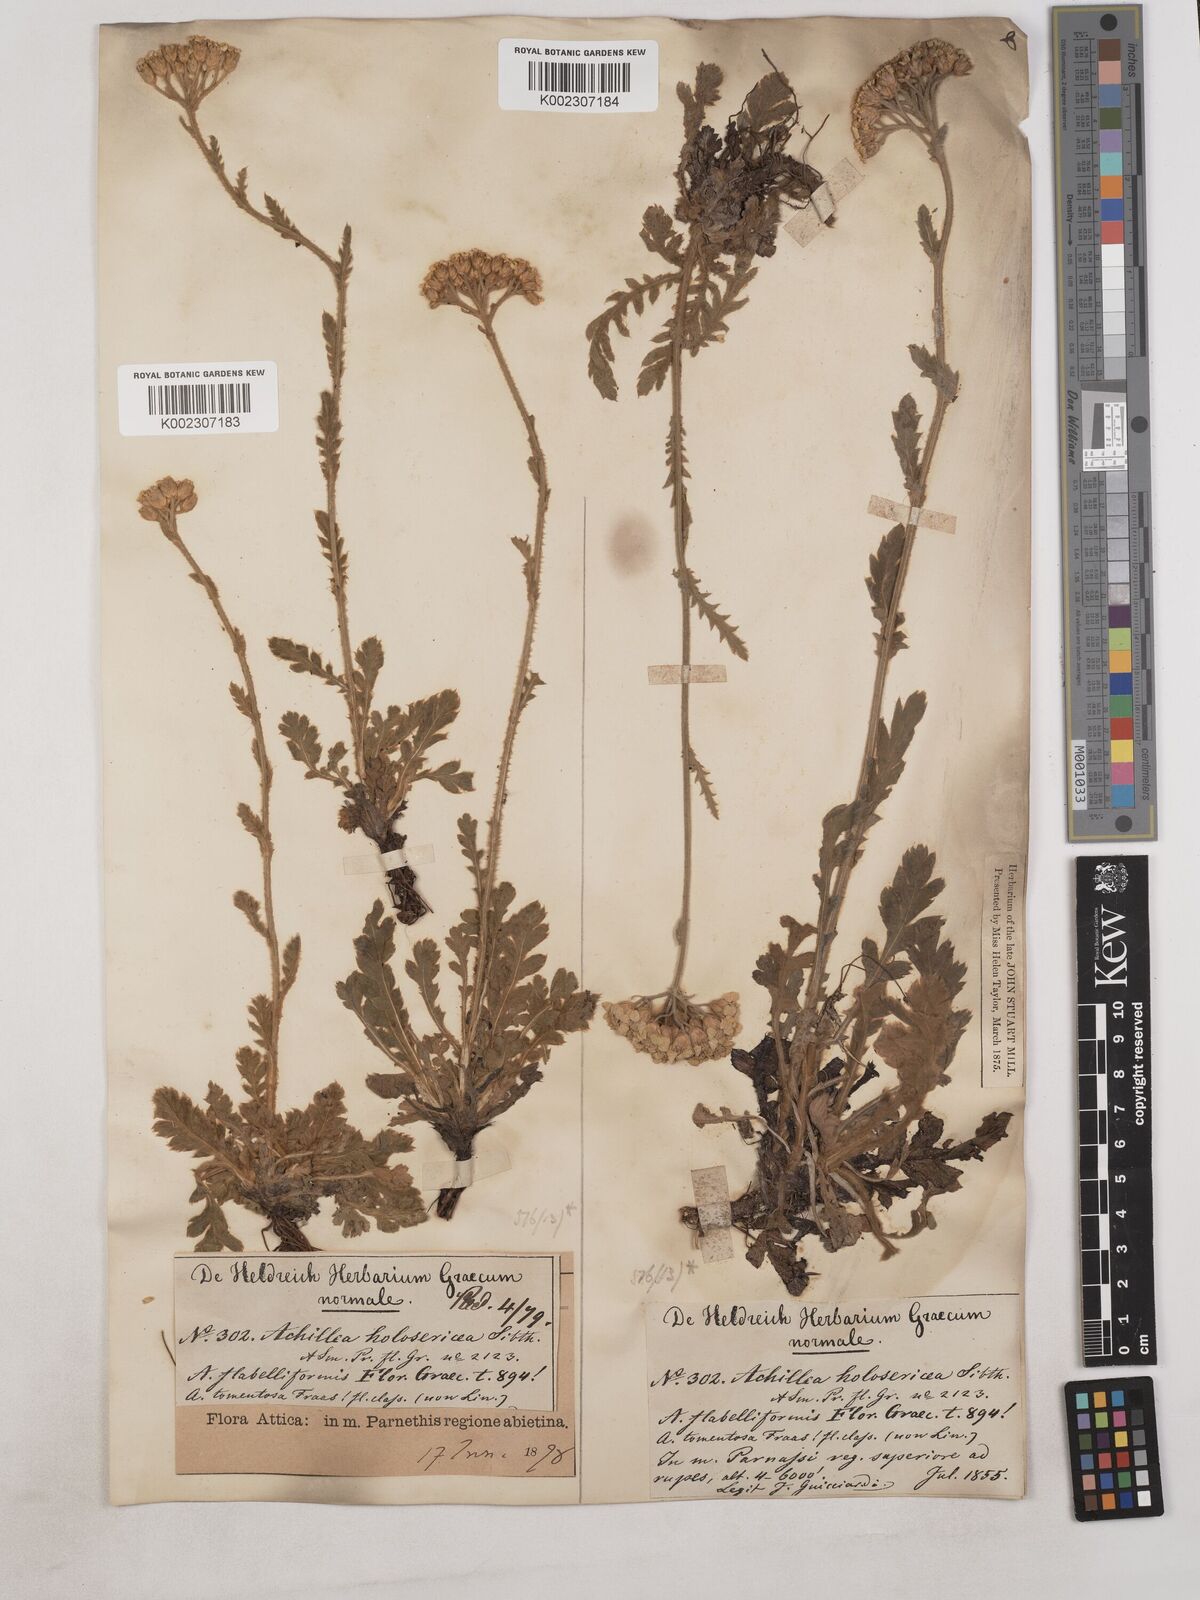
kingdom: Plantae
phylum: Tracheophyta
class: Magnoliopsida
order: Asterales
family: Asteraceae
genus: Achillea
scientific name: Achillea holosericea
